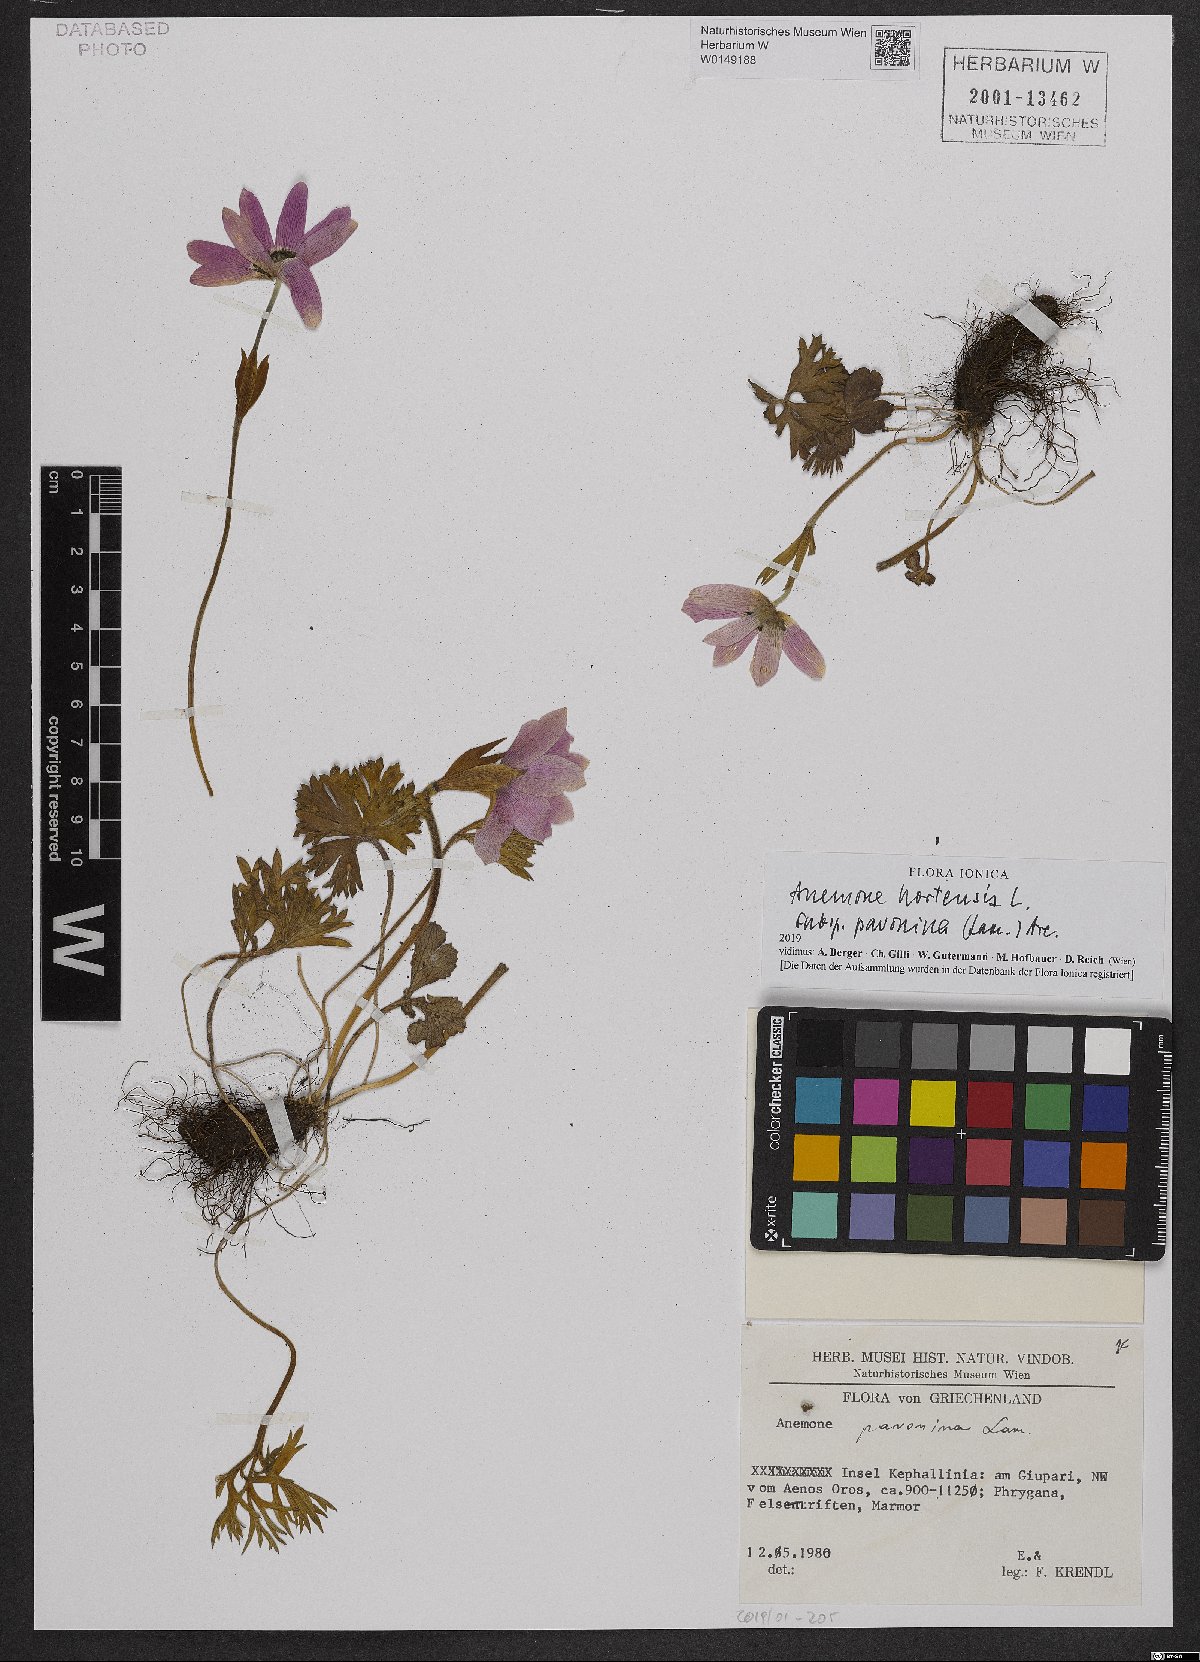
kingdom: Plantae
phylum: Tracheophyta
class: Magnoliopsida
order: Ranunculales
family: Ranunculaceae
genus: Anemone
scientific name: Anemone pavonina
